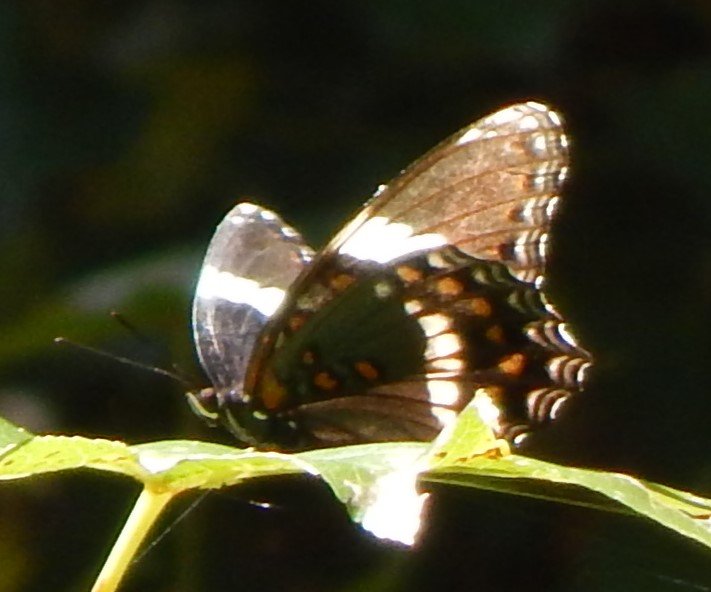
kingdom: Animalia
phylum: Arthropoda
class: Insecta
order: Lepidoptera
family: Nymphalidae
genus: Limenitis
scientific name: Limenitis arthemis
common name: Red-spotted Admiral
